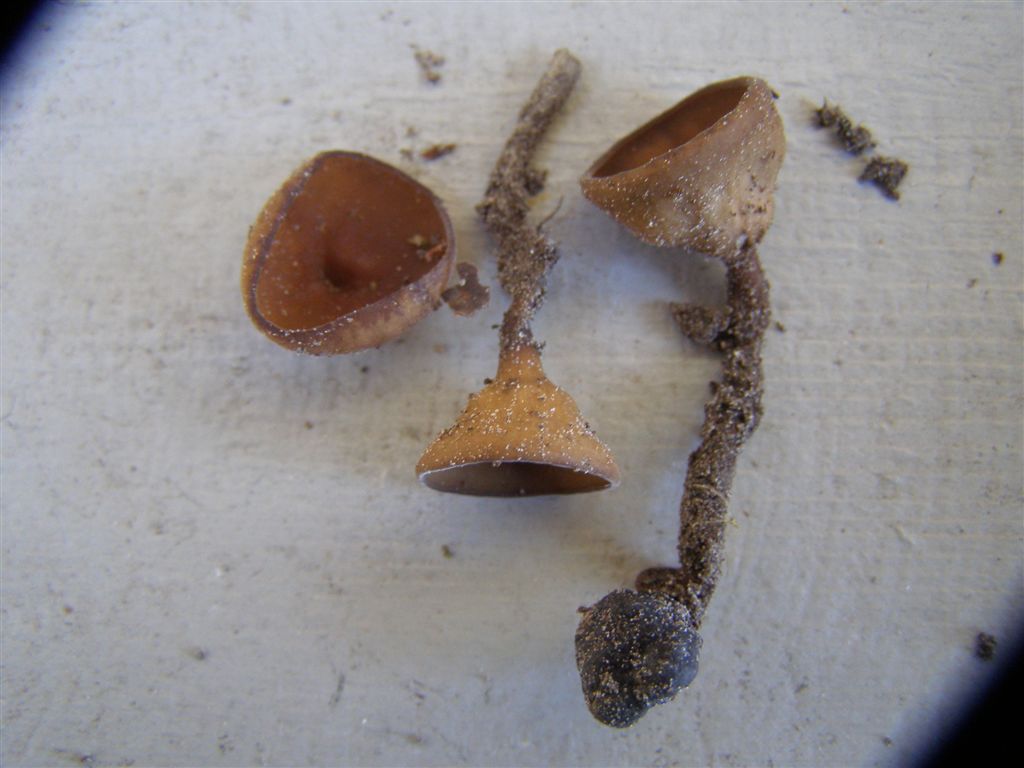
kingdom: Fungi
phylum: Ascomycota
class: Leotiomycetes
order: Helotiales
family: Sclerotiniaceae
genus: Dumontinia
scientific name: Dumontinia tuberosa
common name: anemone-knoldskive
